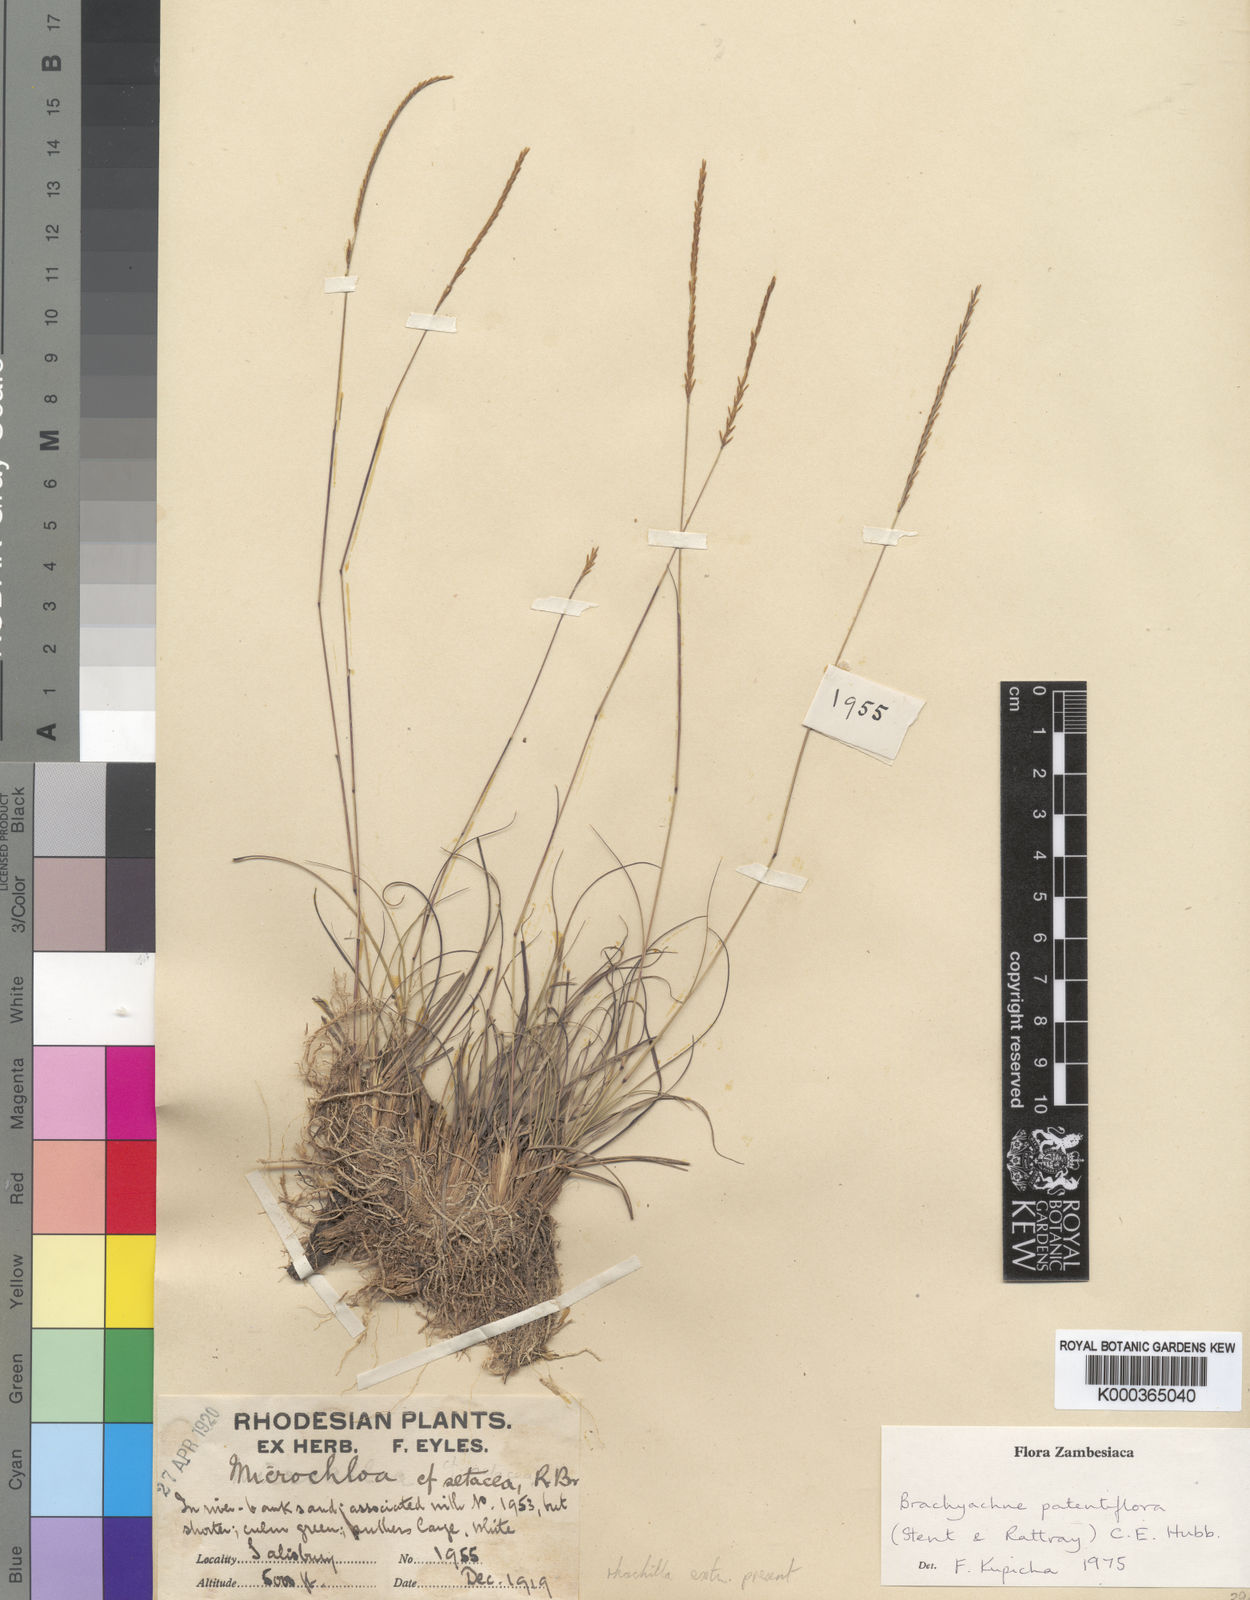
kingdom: Plantae
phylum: Tracheophyta
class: Liliopsida
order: Poales
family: Poaceae
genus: Micrachne
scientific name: Micrachne patentiflora
